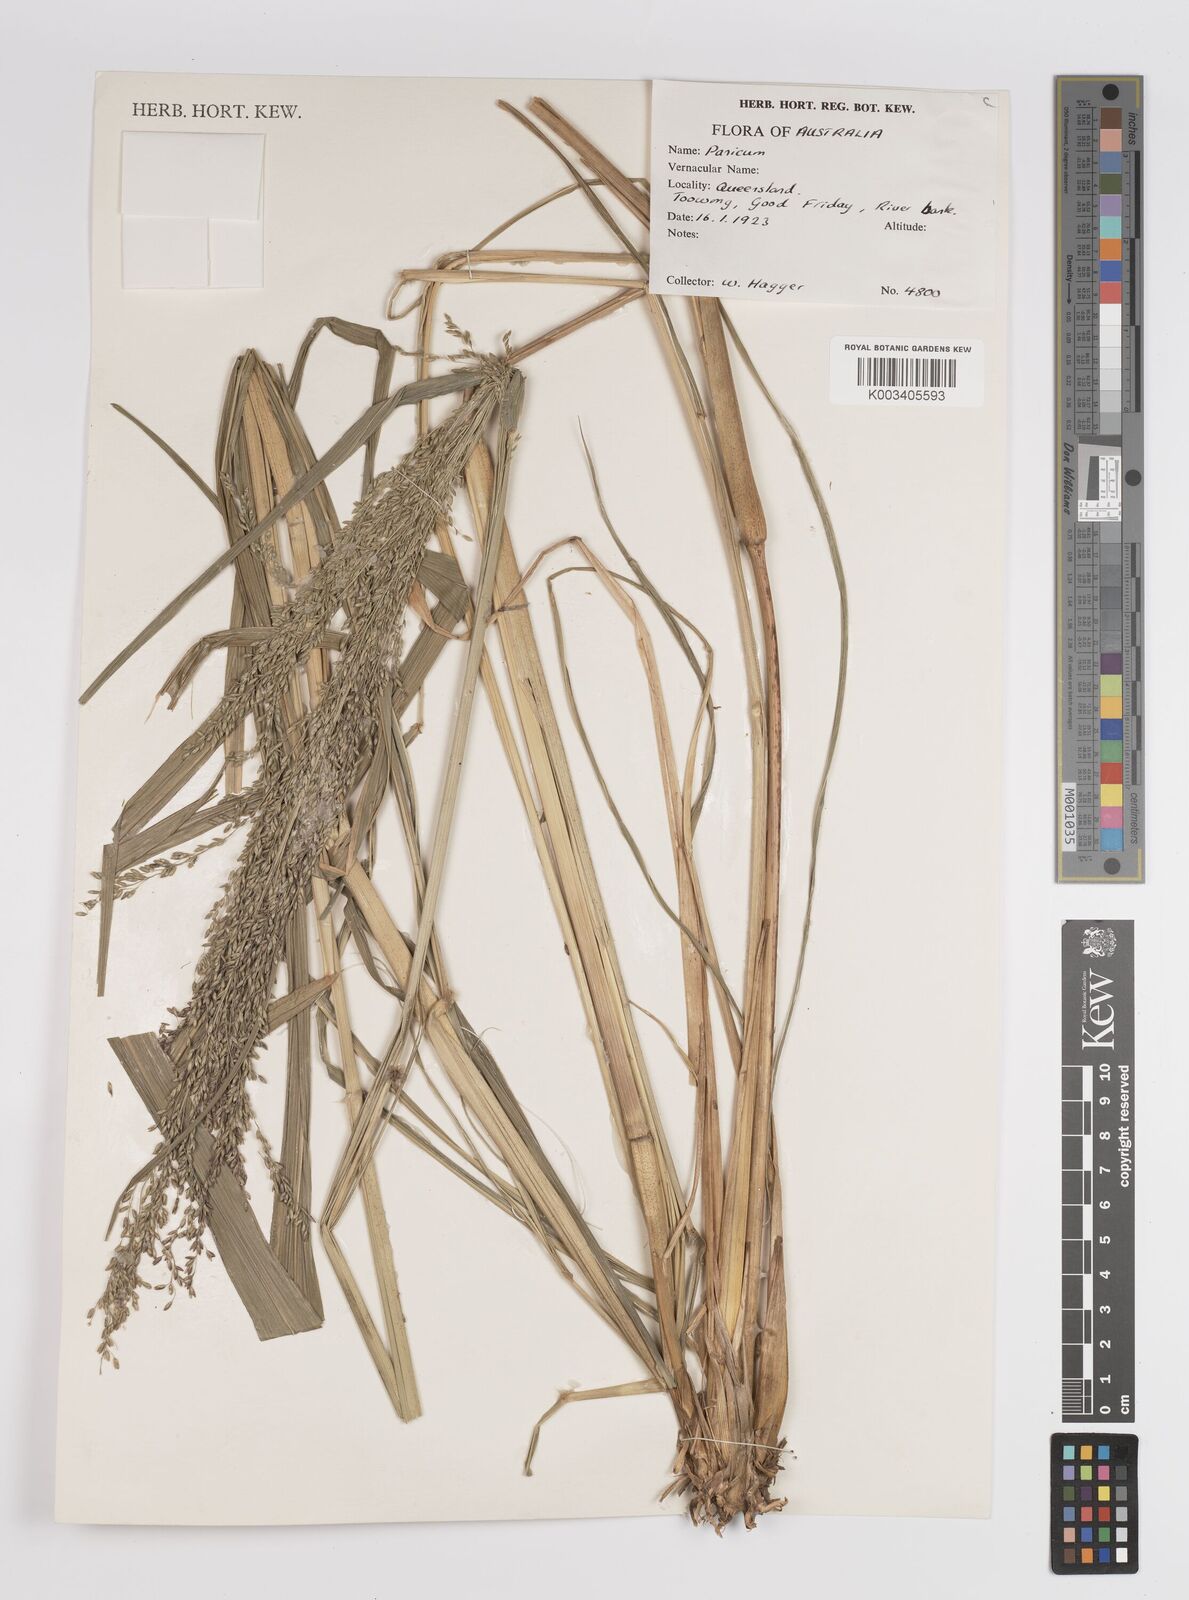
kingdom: Plantae
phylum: Tracheophyta
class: Liliopsida
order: Poales
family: Poaceae
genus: Panicum
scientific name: Panicum
